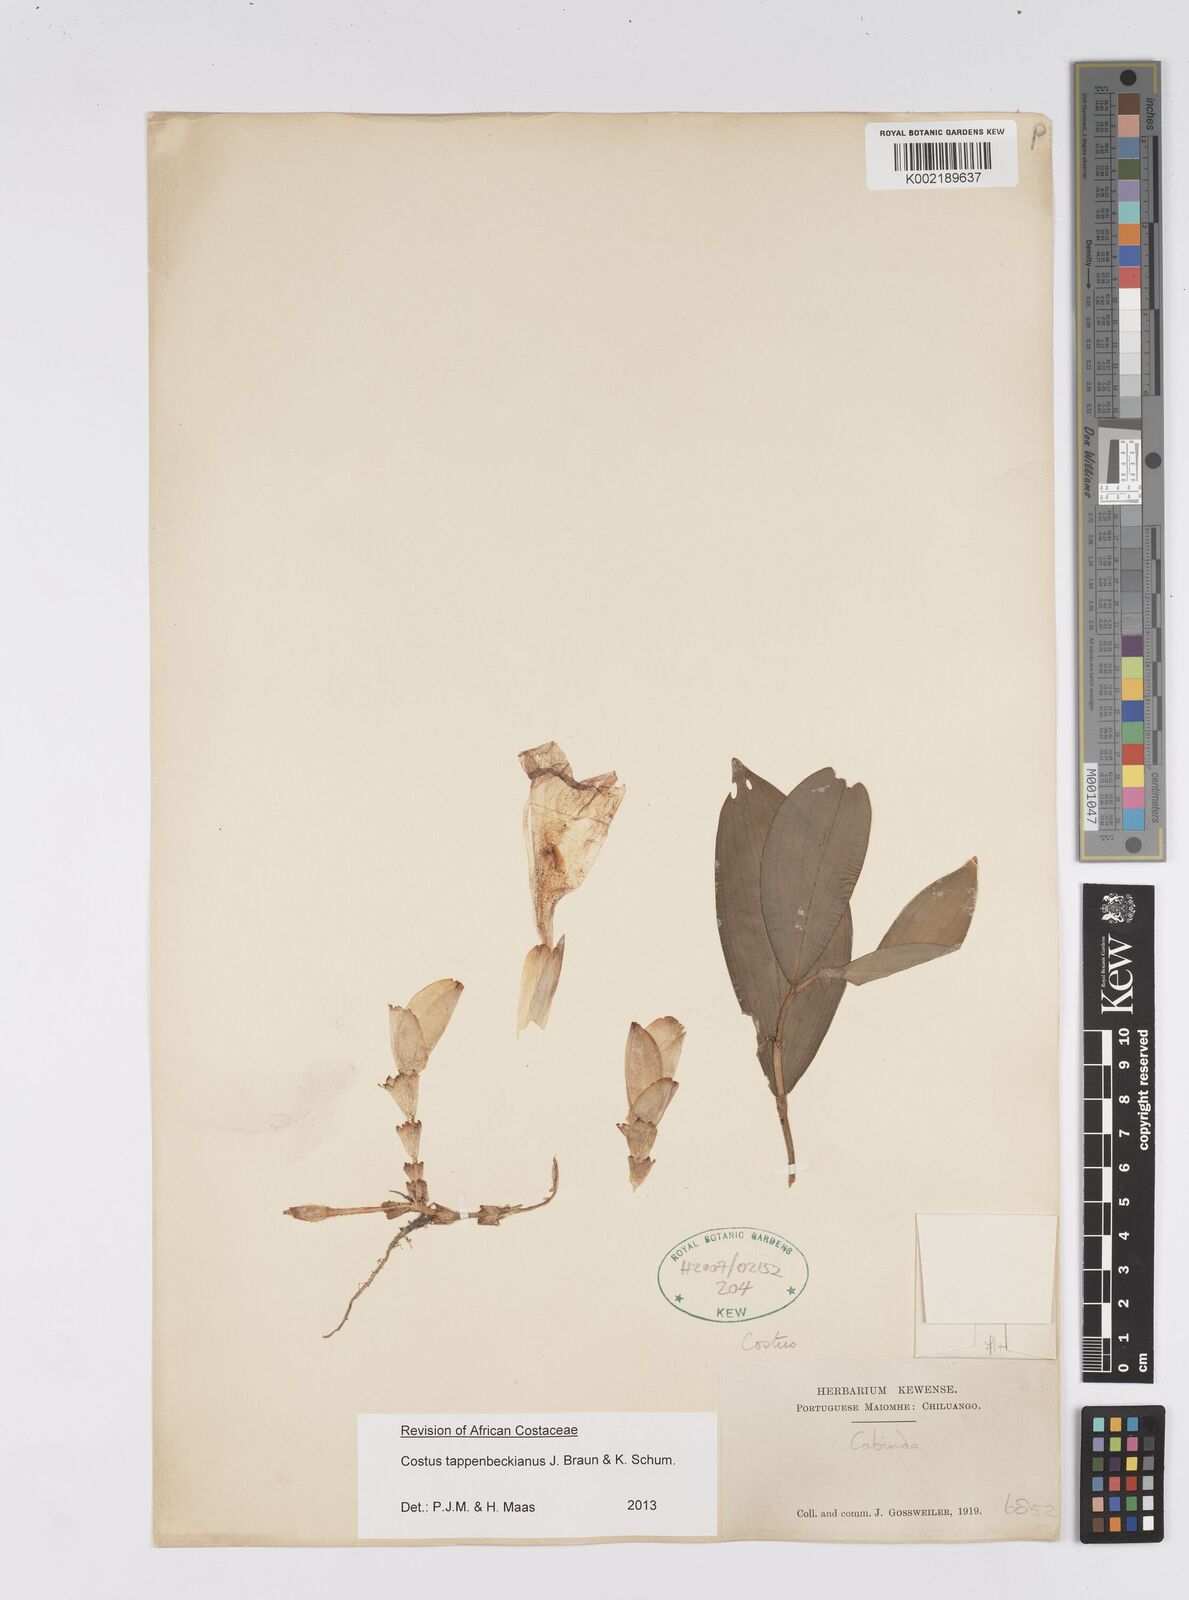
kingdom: Plantae
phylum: Tracheophyta
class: Liliopsida
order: Zingiberales
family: Costaceae
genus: Costus
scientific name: Costus tappenbeckianus
